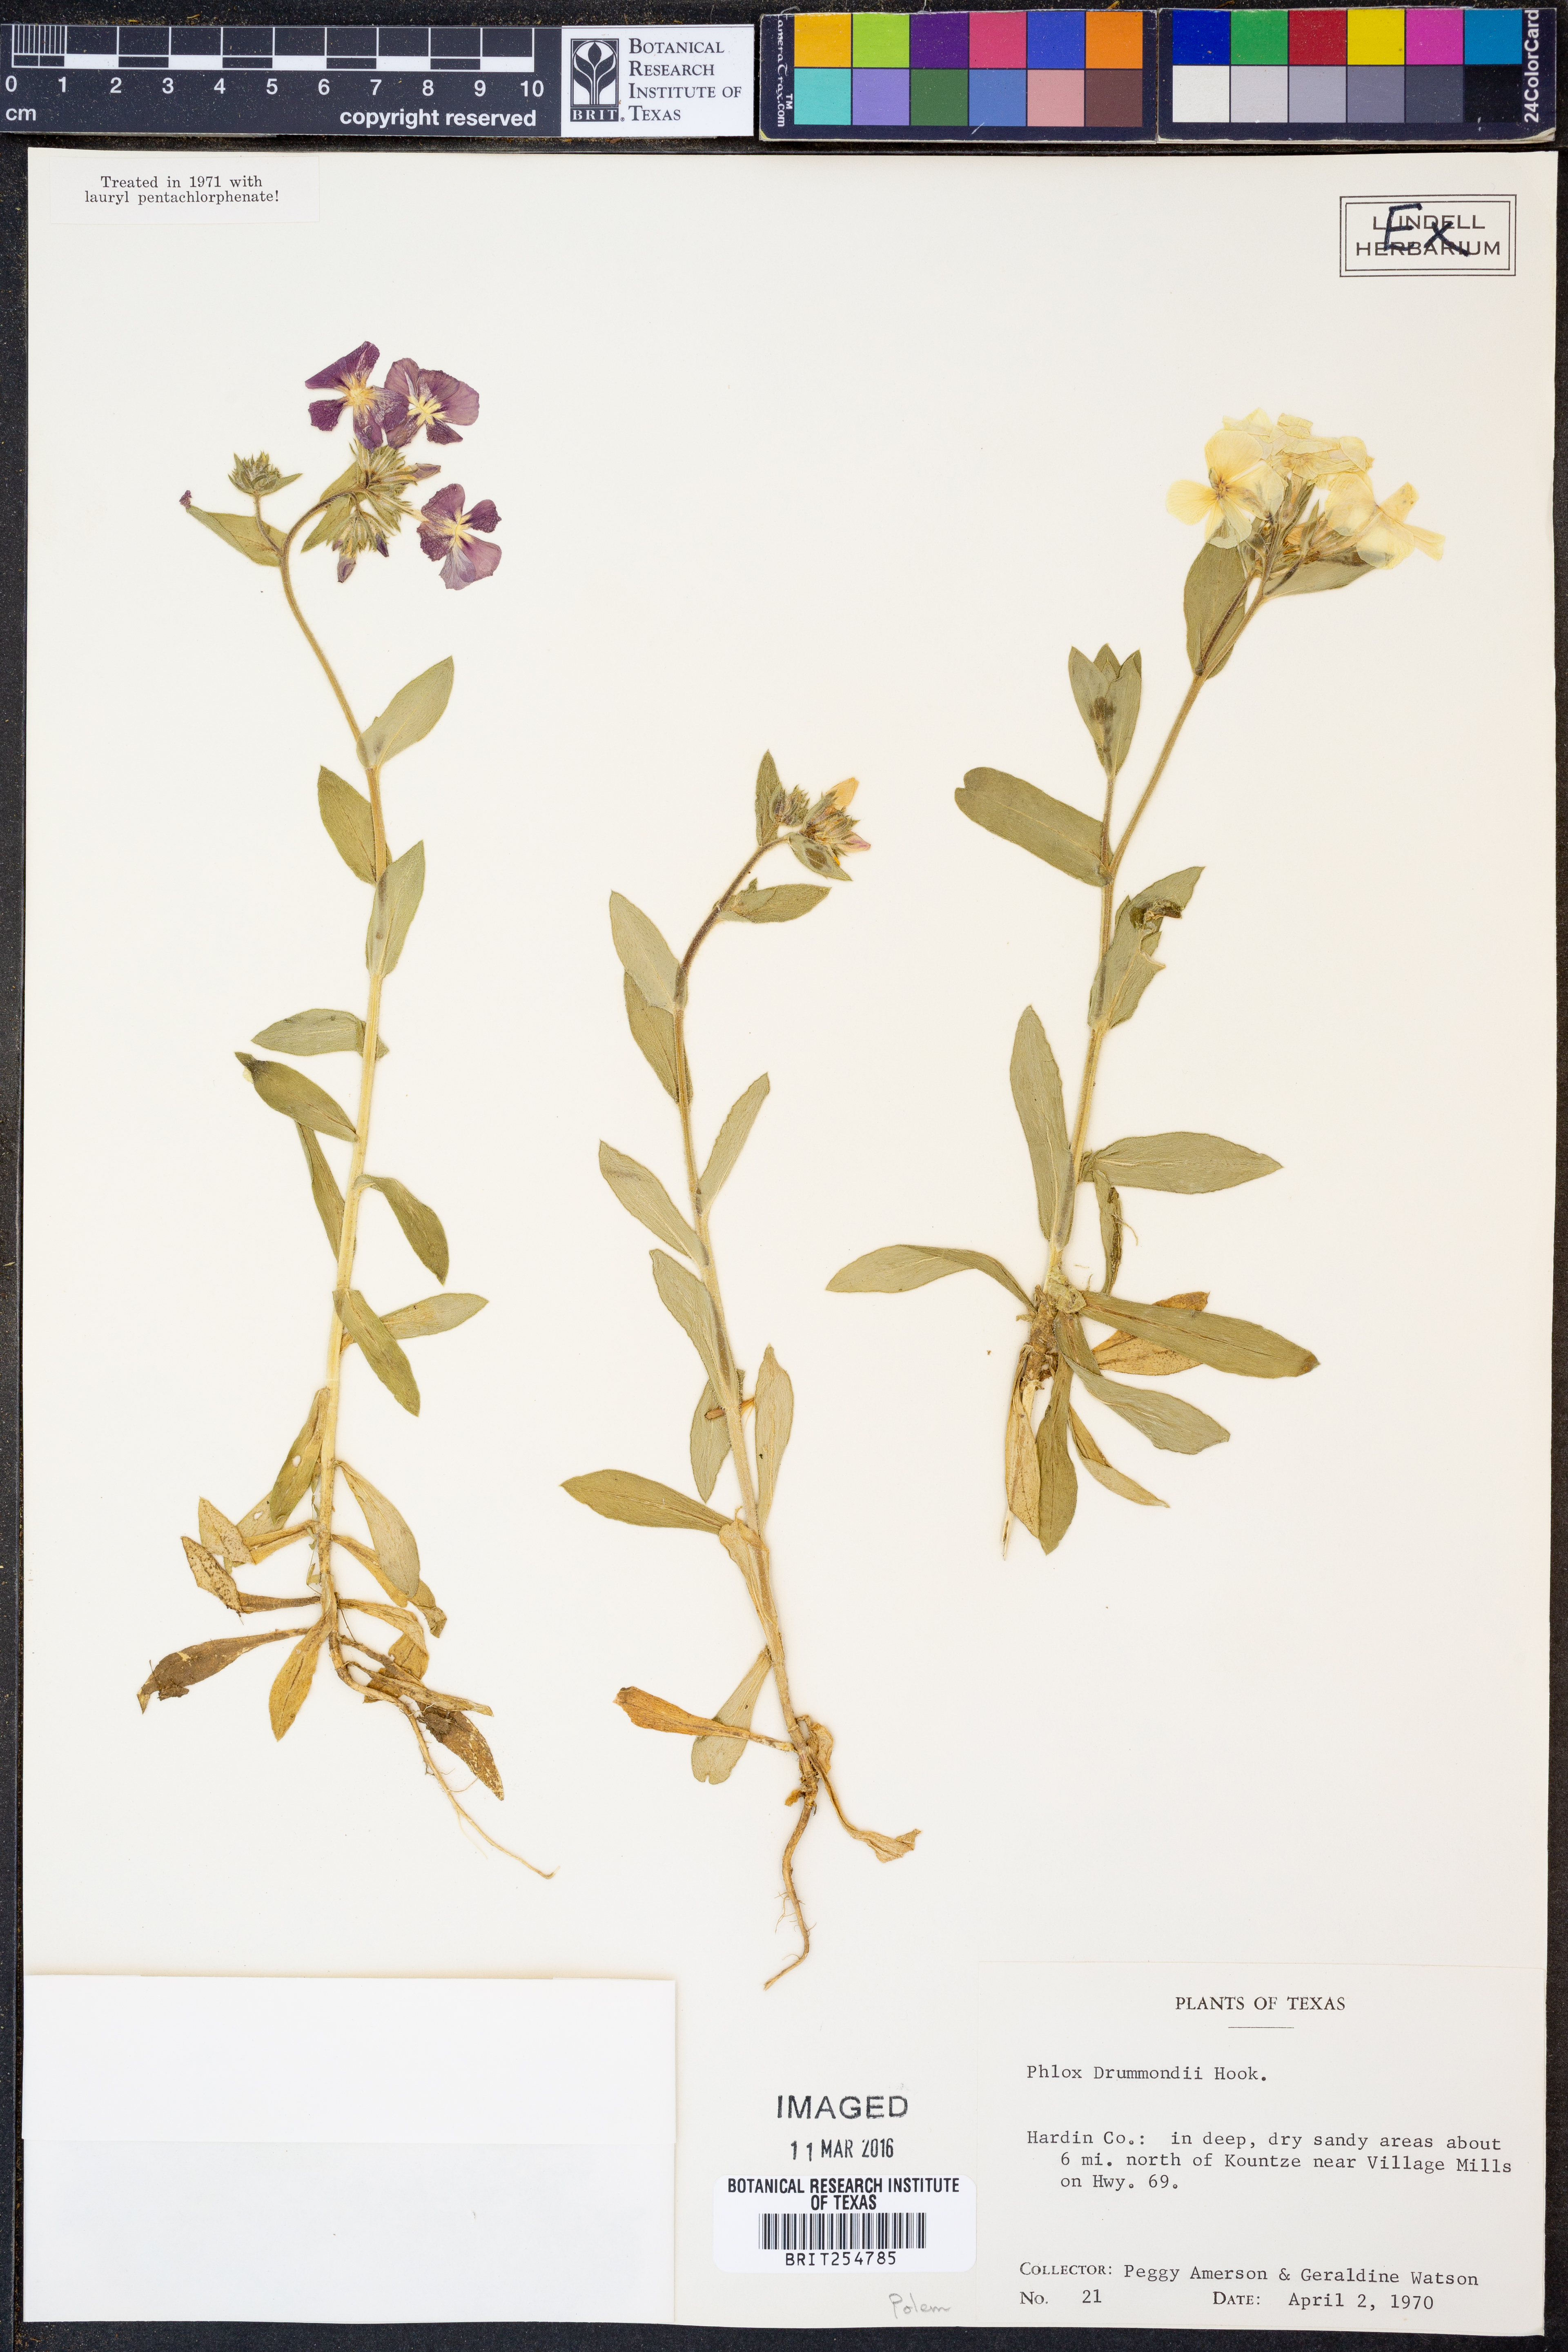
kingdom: Plantae
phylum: Tracheophyta
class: Magnoliopsida
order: Ericales
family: Polemoniaceae
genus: Phlox
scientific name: Phlox drummondii
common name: Drummond's phlox
